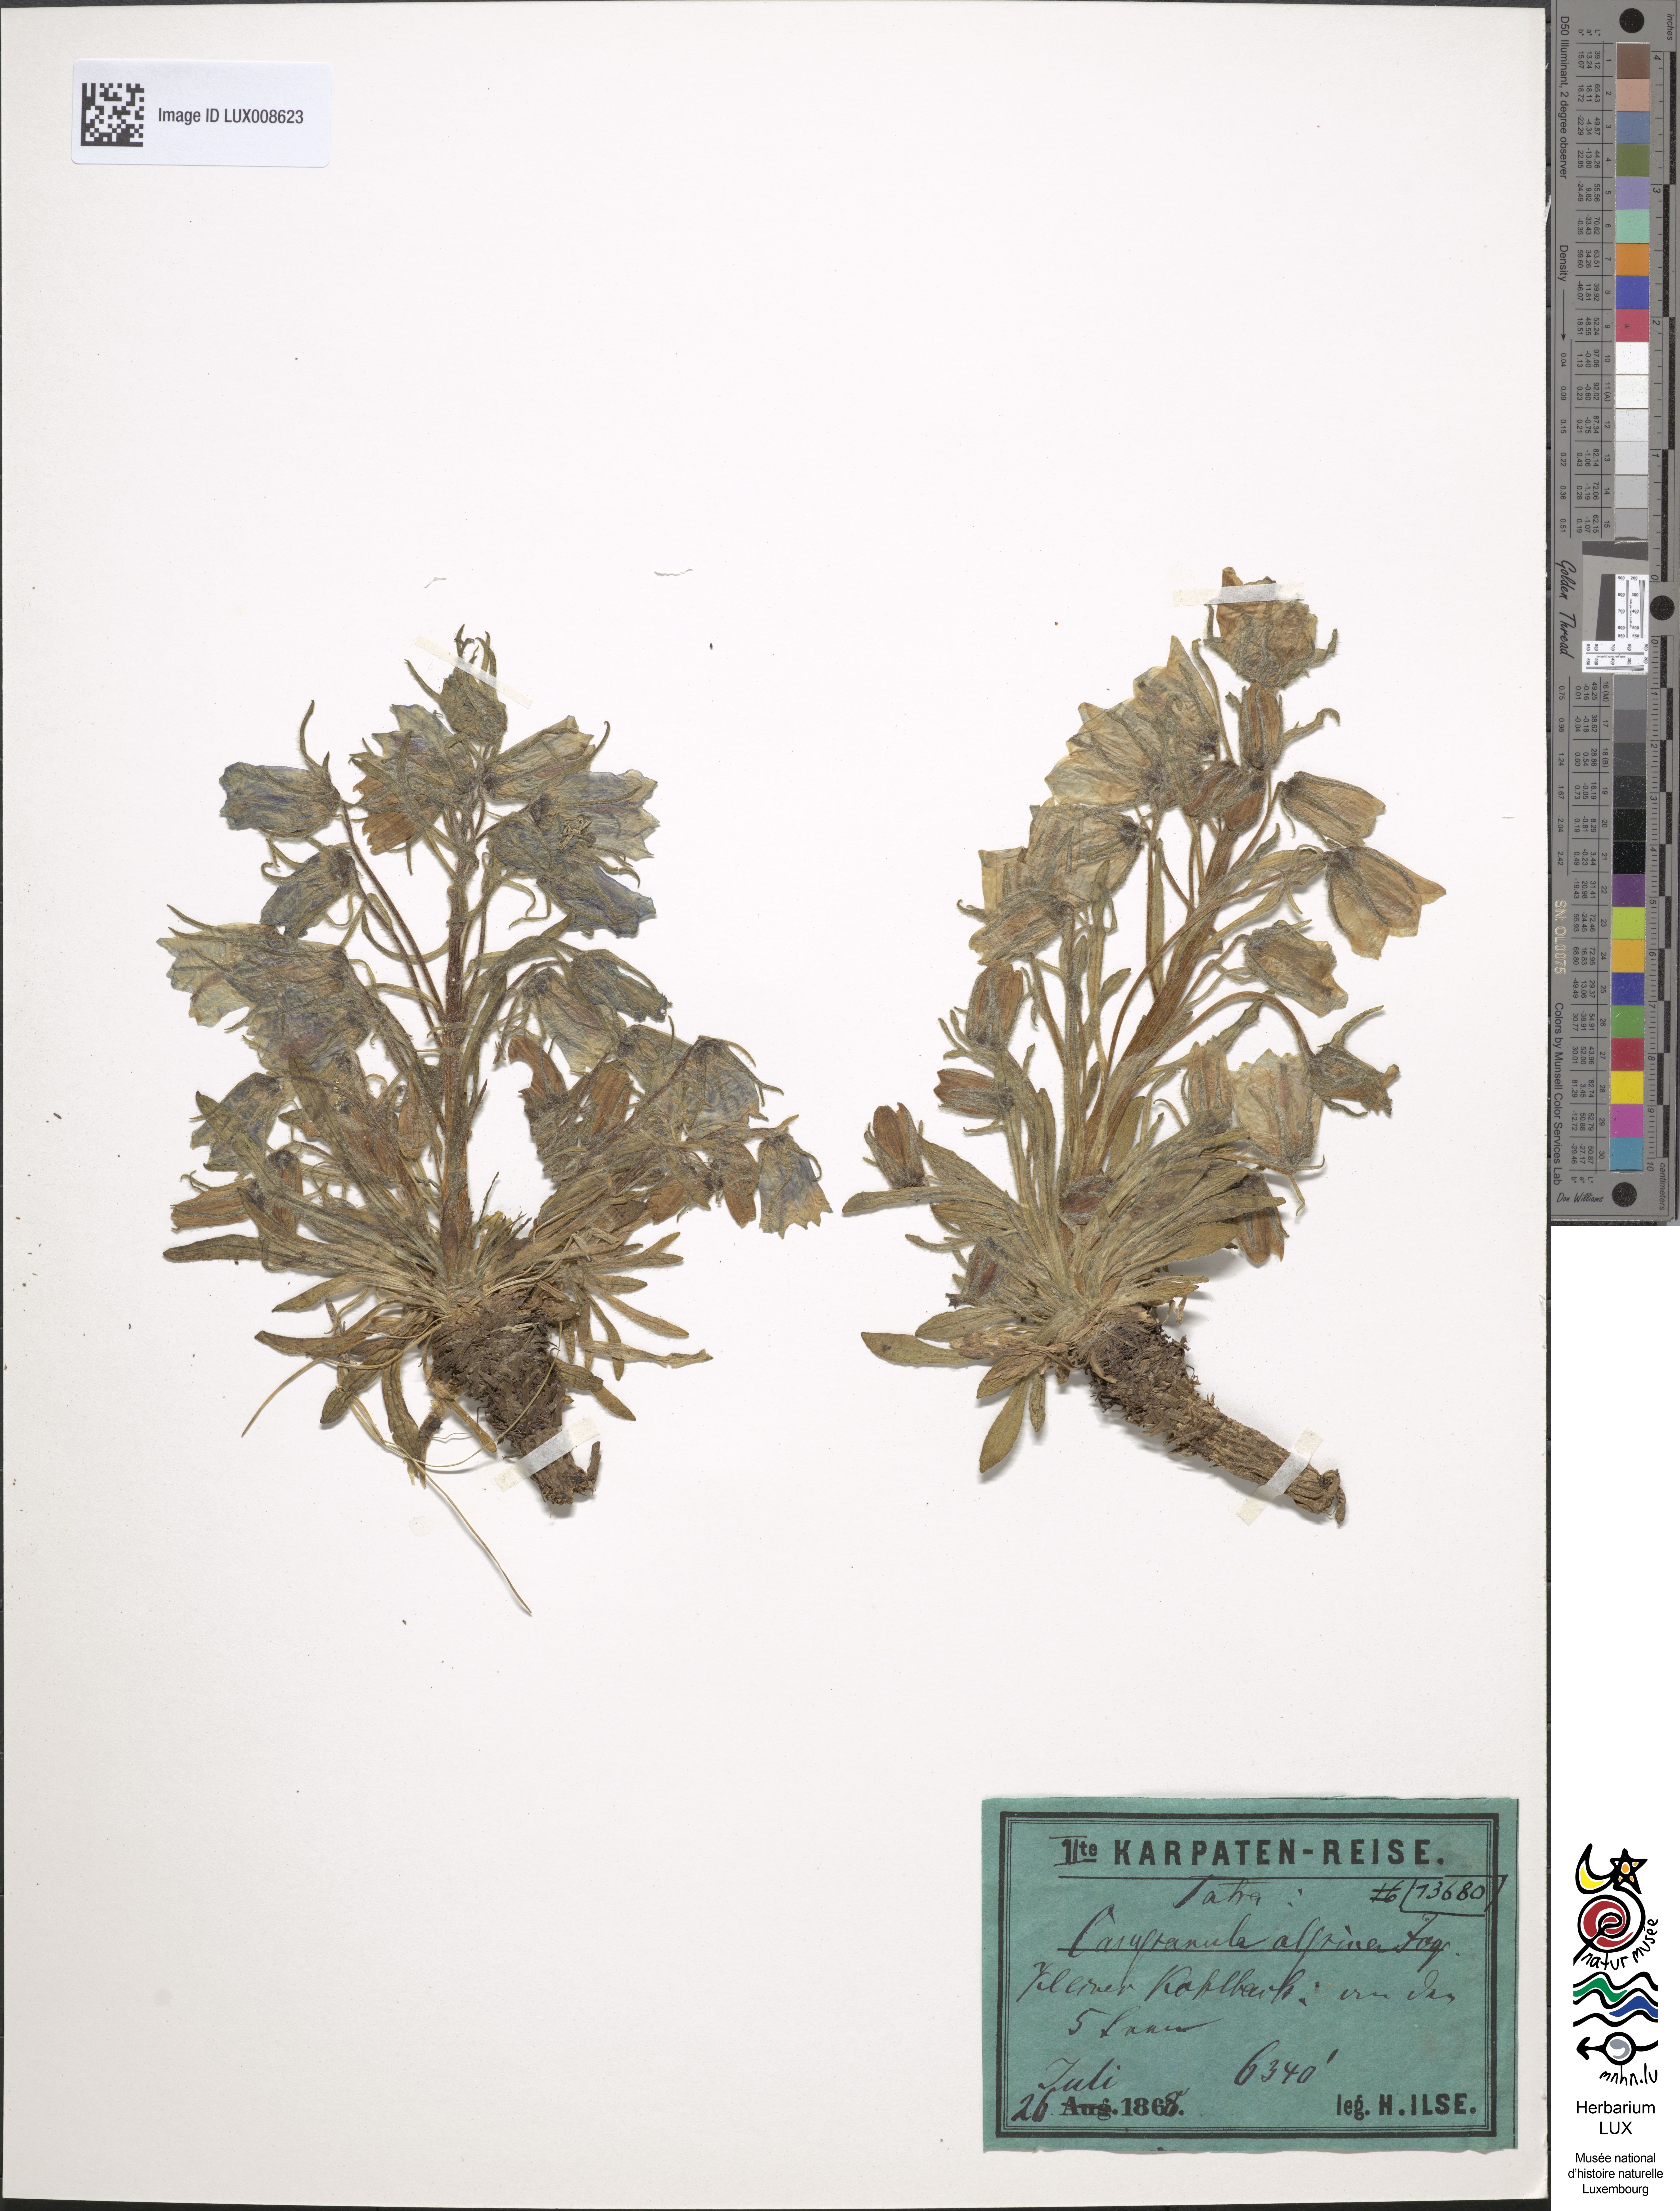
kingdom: Plantae
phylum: Tracheophyta
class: Magnoliopsida
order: Asterales
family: Campanulaceae
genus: Campanula
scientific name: Campanula alpina
